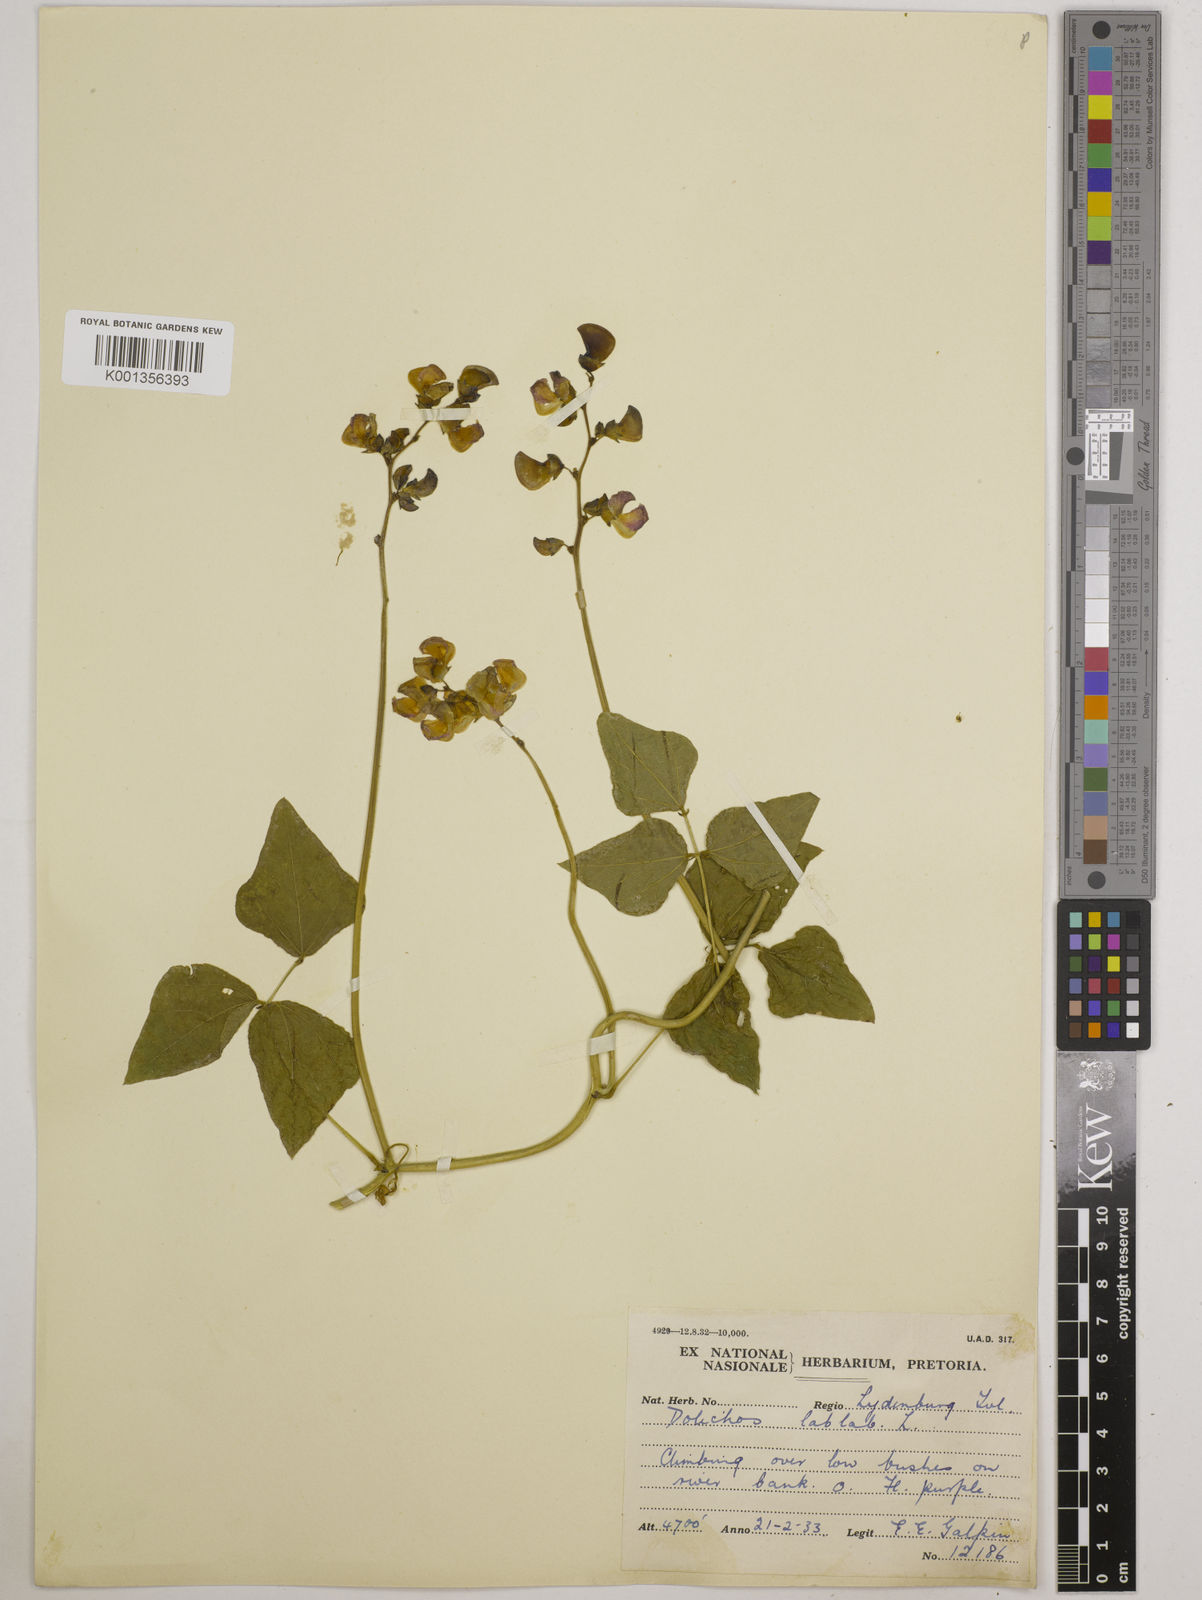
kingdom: Plantae
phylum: Tracheophyta
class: Magnoliopsida
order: Fabales
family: Fabaceae
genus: Lablab
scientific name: Lablab purpureus
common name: Lablab-bean
